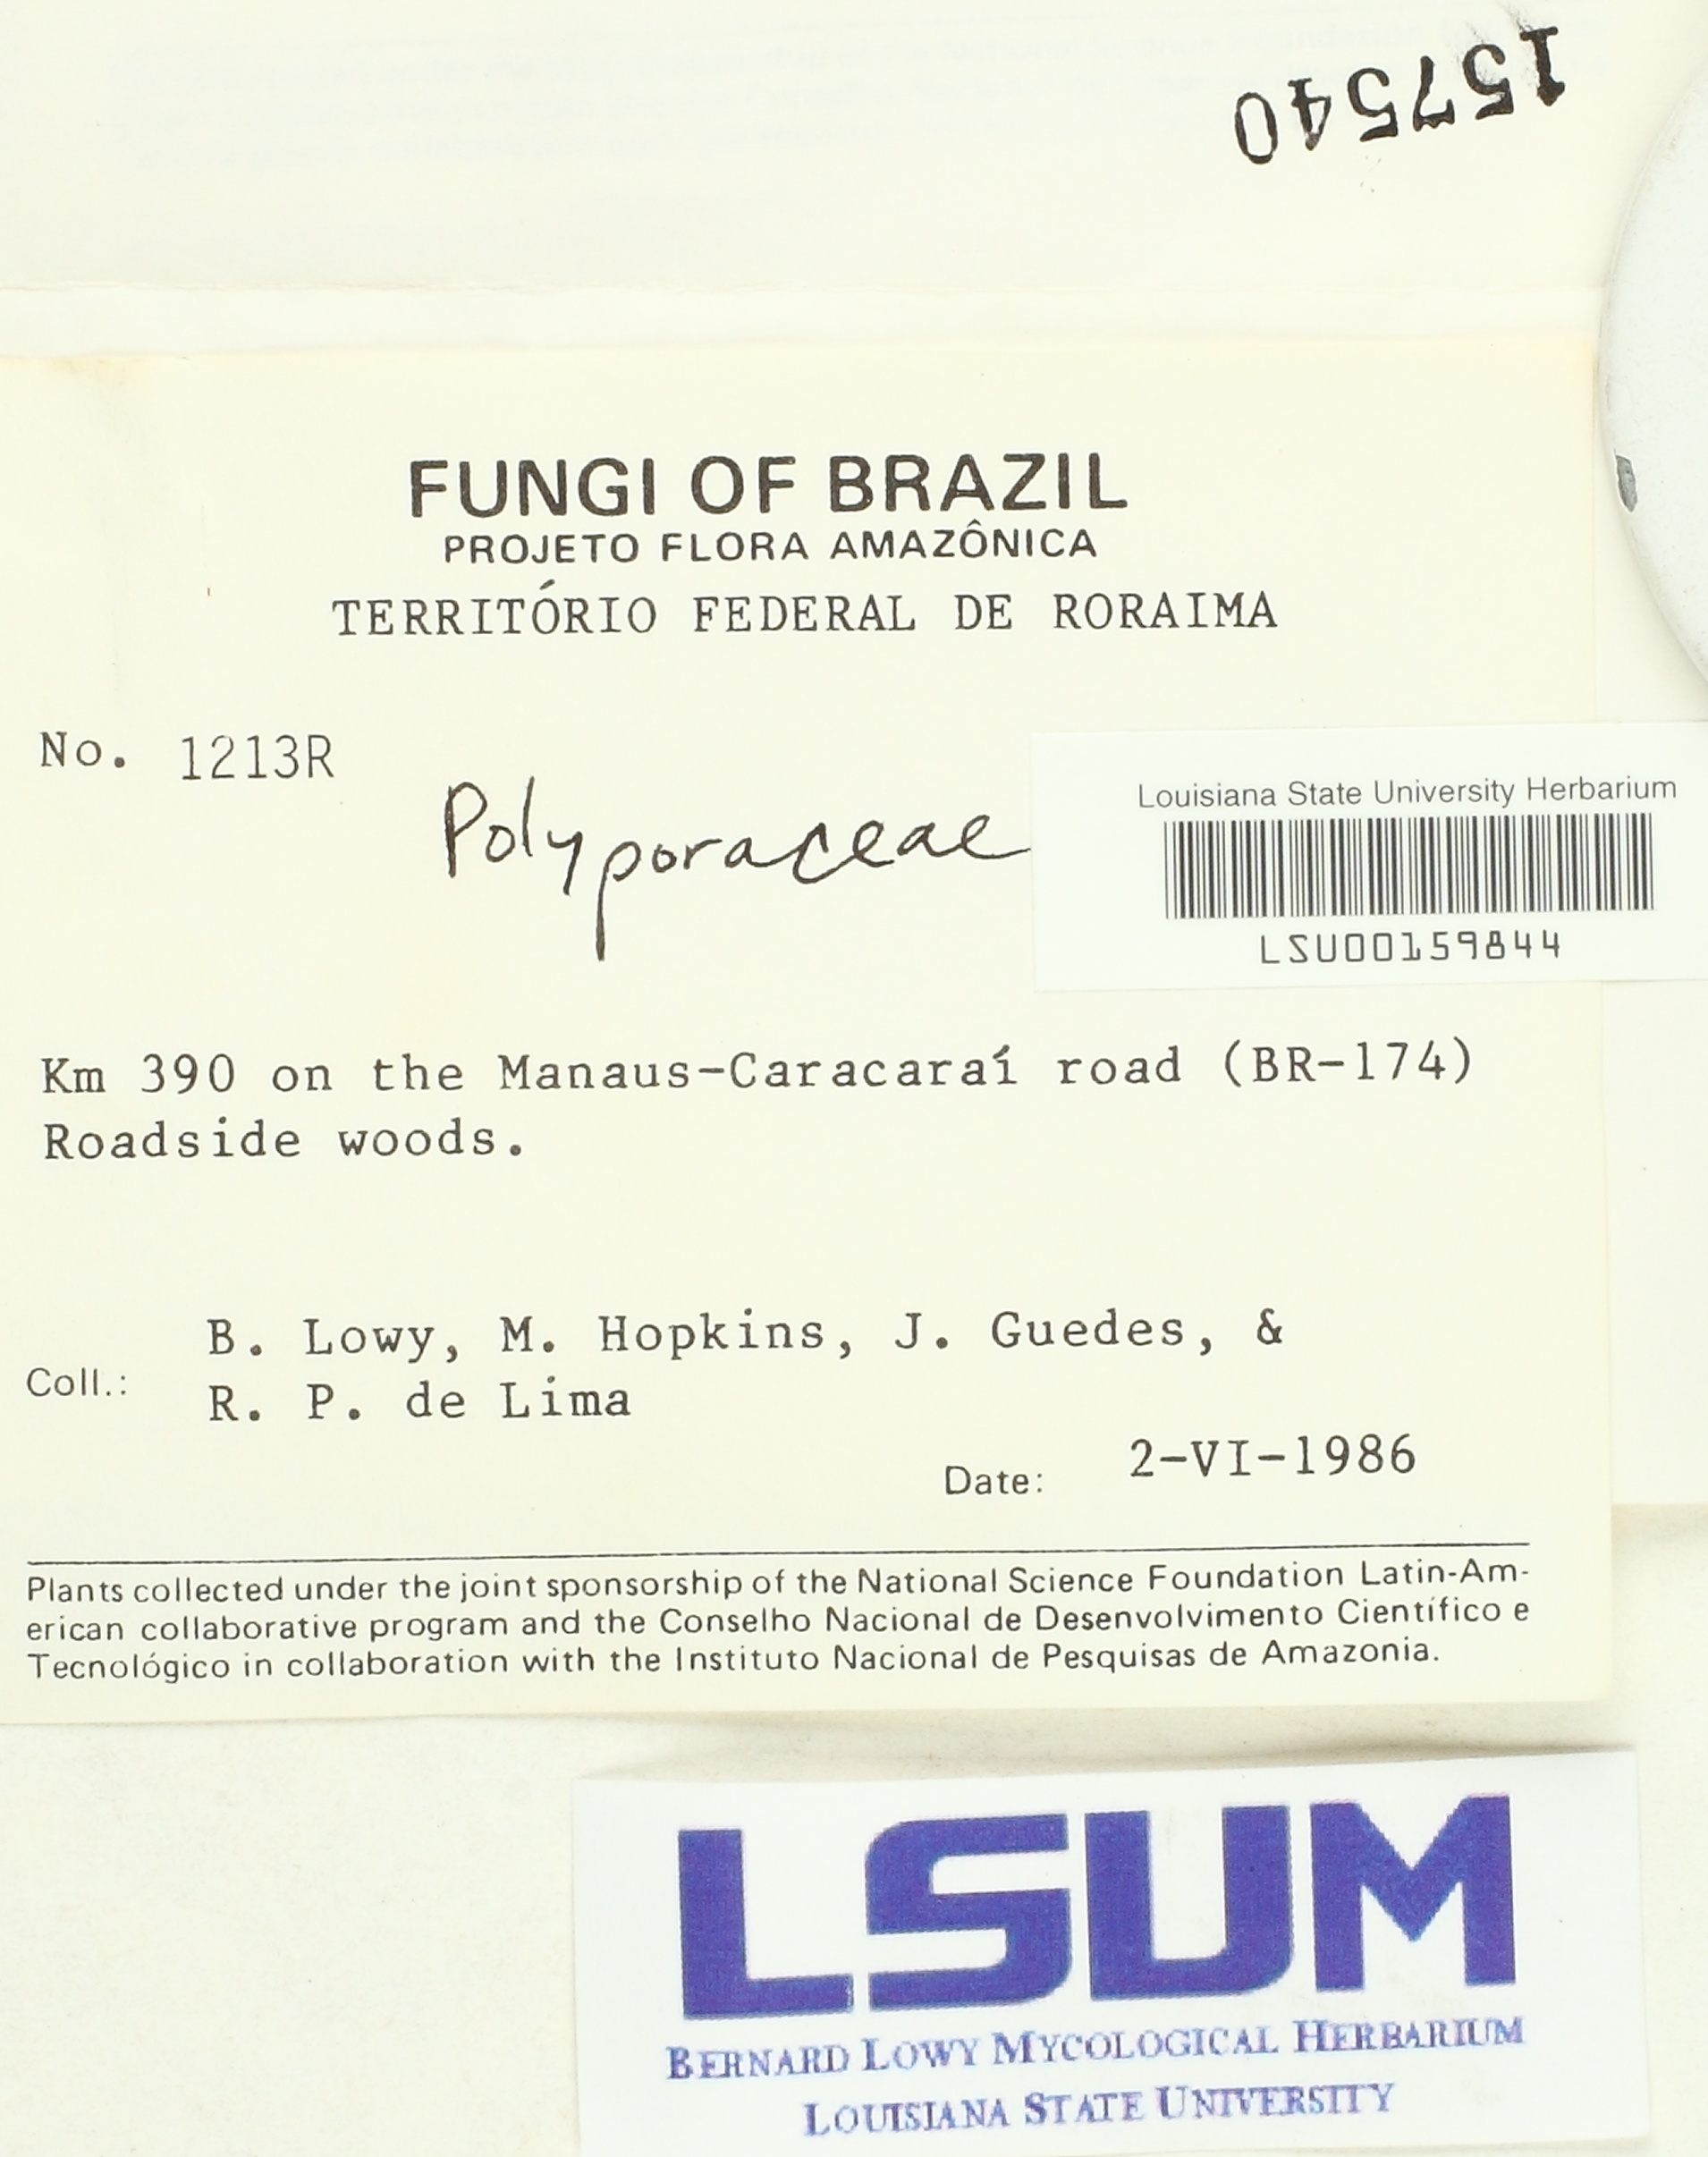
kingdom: Fungi
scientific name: Fungi
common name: Fungi
